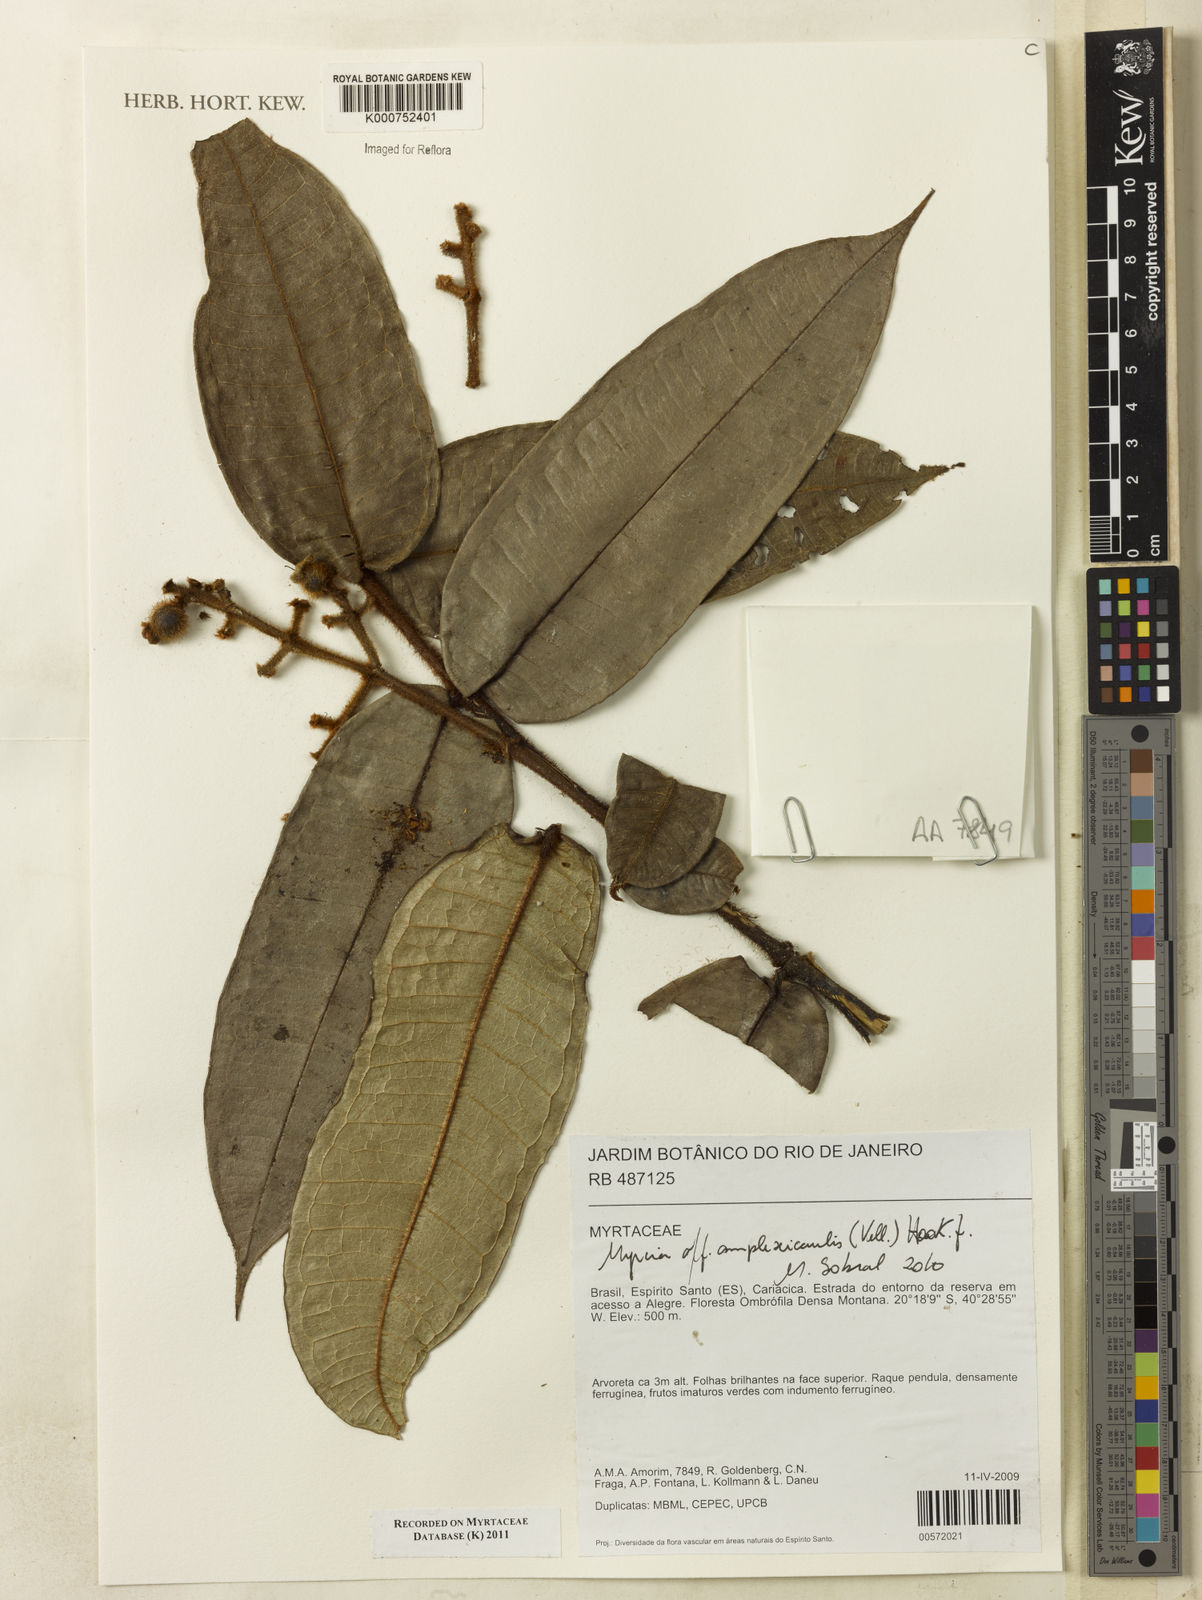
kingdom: Plantae
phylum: Tracheophyta
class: Magnoliopsida
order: Myrtales
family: Myrtaceae
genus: Myrcia
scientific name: Myrcia amplexicaulis
